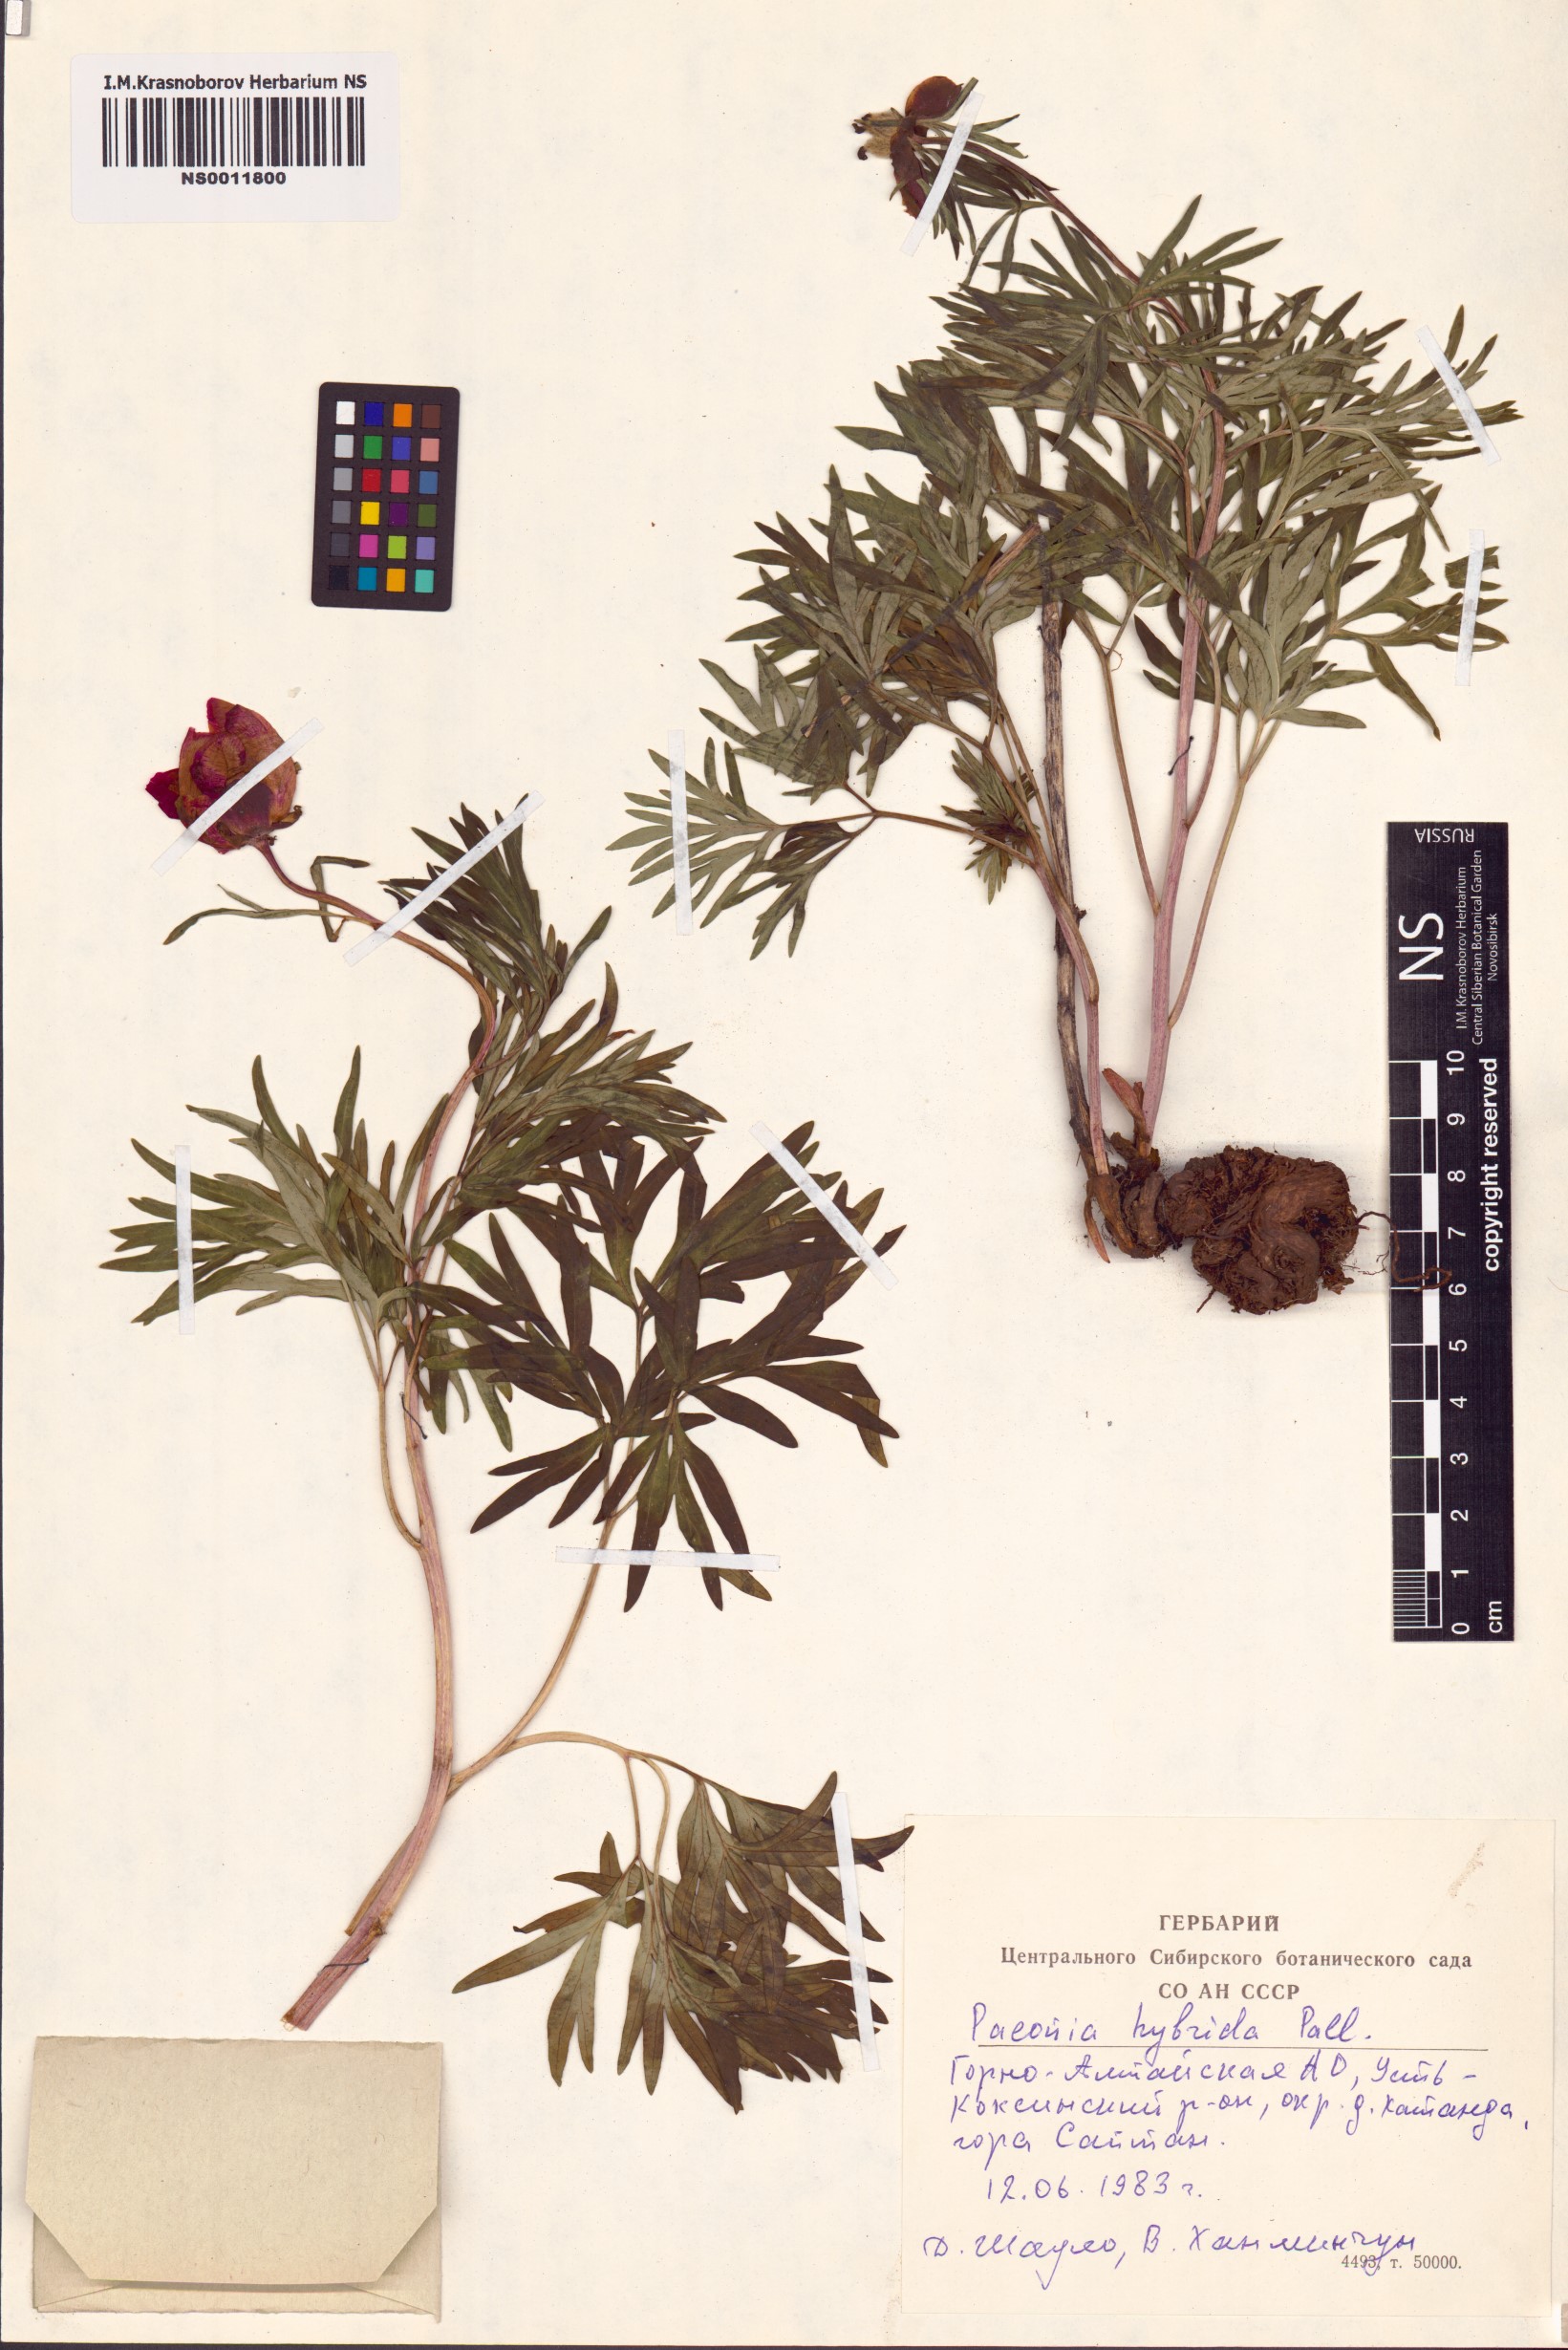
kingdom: Plantae
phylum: Tracheophyta
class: Magnoliopsida
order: Saxifragales
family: Paeoniaceae
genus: Paeonia
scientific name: Paeonia
